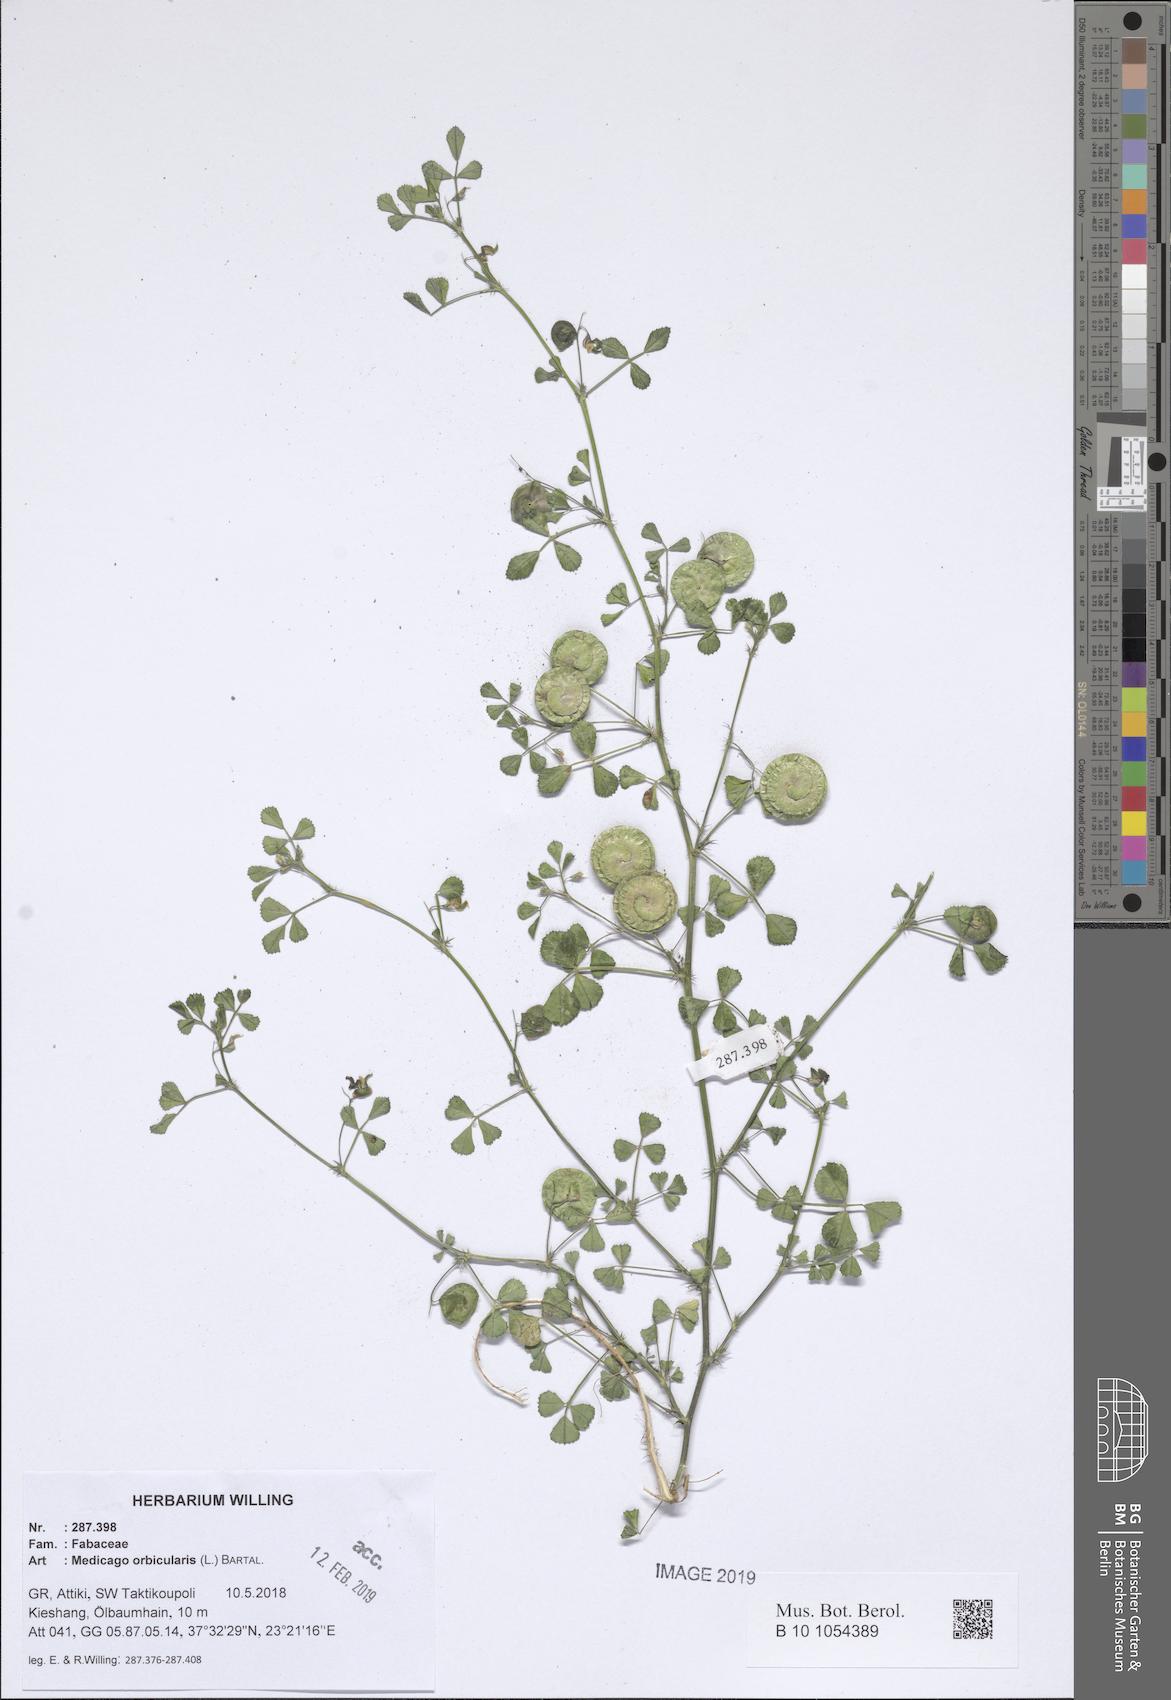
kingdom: Plantae
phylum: Tracheophyta
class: Magnoliopsida
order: Fabales
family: Fabaceae
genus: Medicago
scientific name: Medicago orbicularis
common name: Button medick
